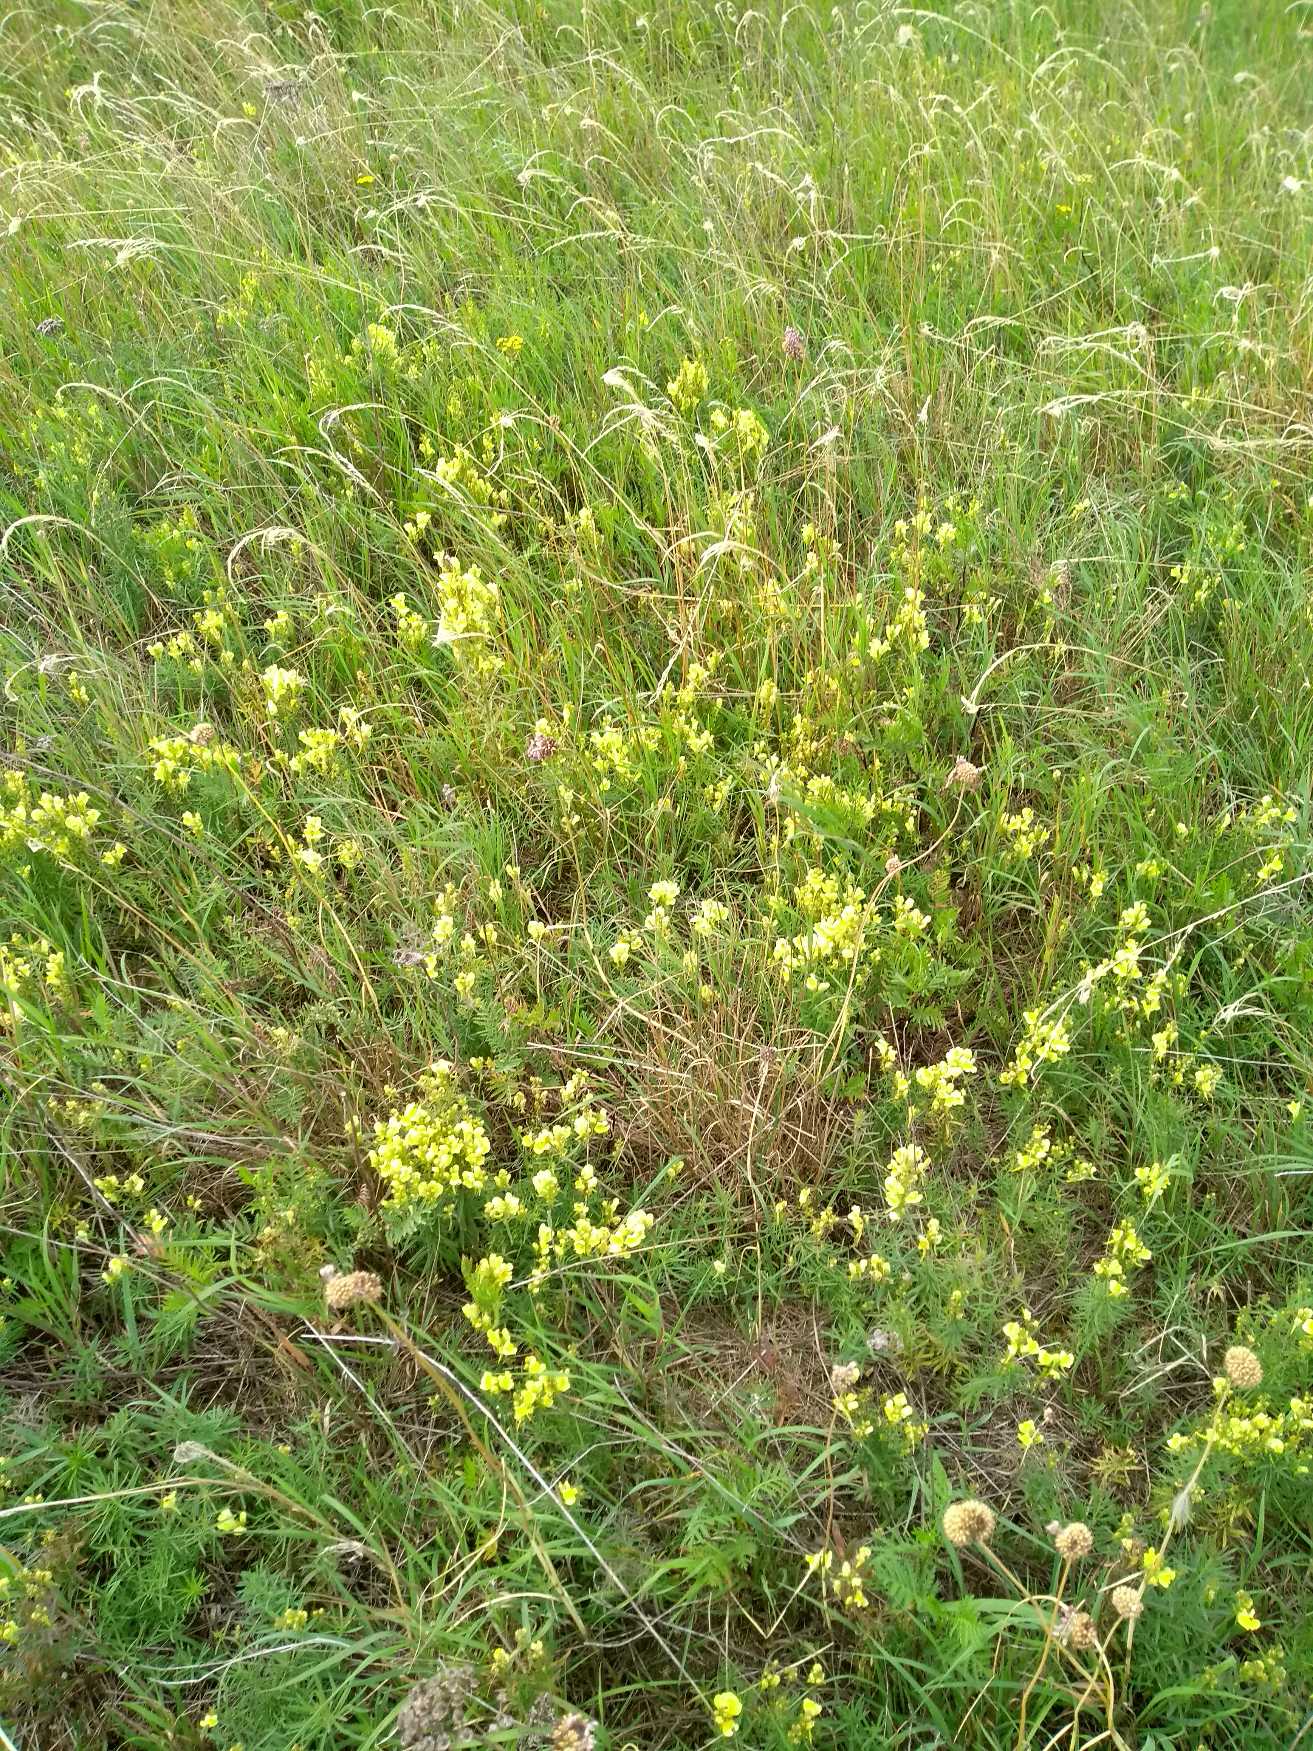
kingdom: Plantae
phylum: Tracheophyta
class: Magnoliopsida
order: Lamiales
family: Plantaginaceae
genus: Linaria
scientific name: Linaria vulgaris
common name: Almindelig torskemund
